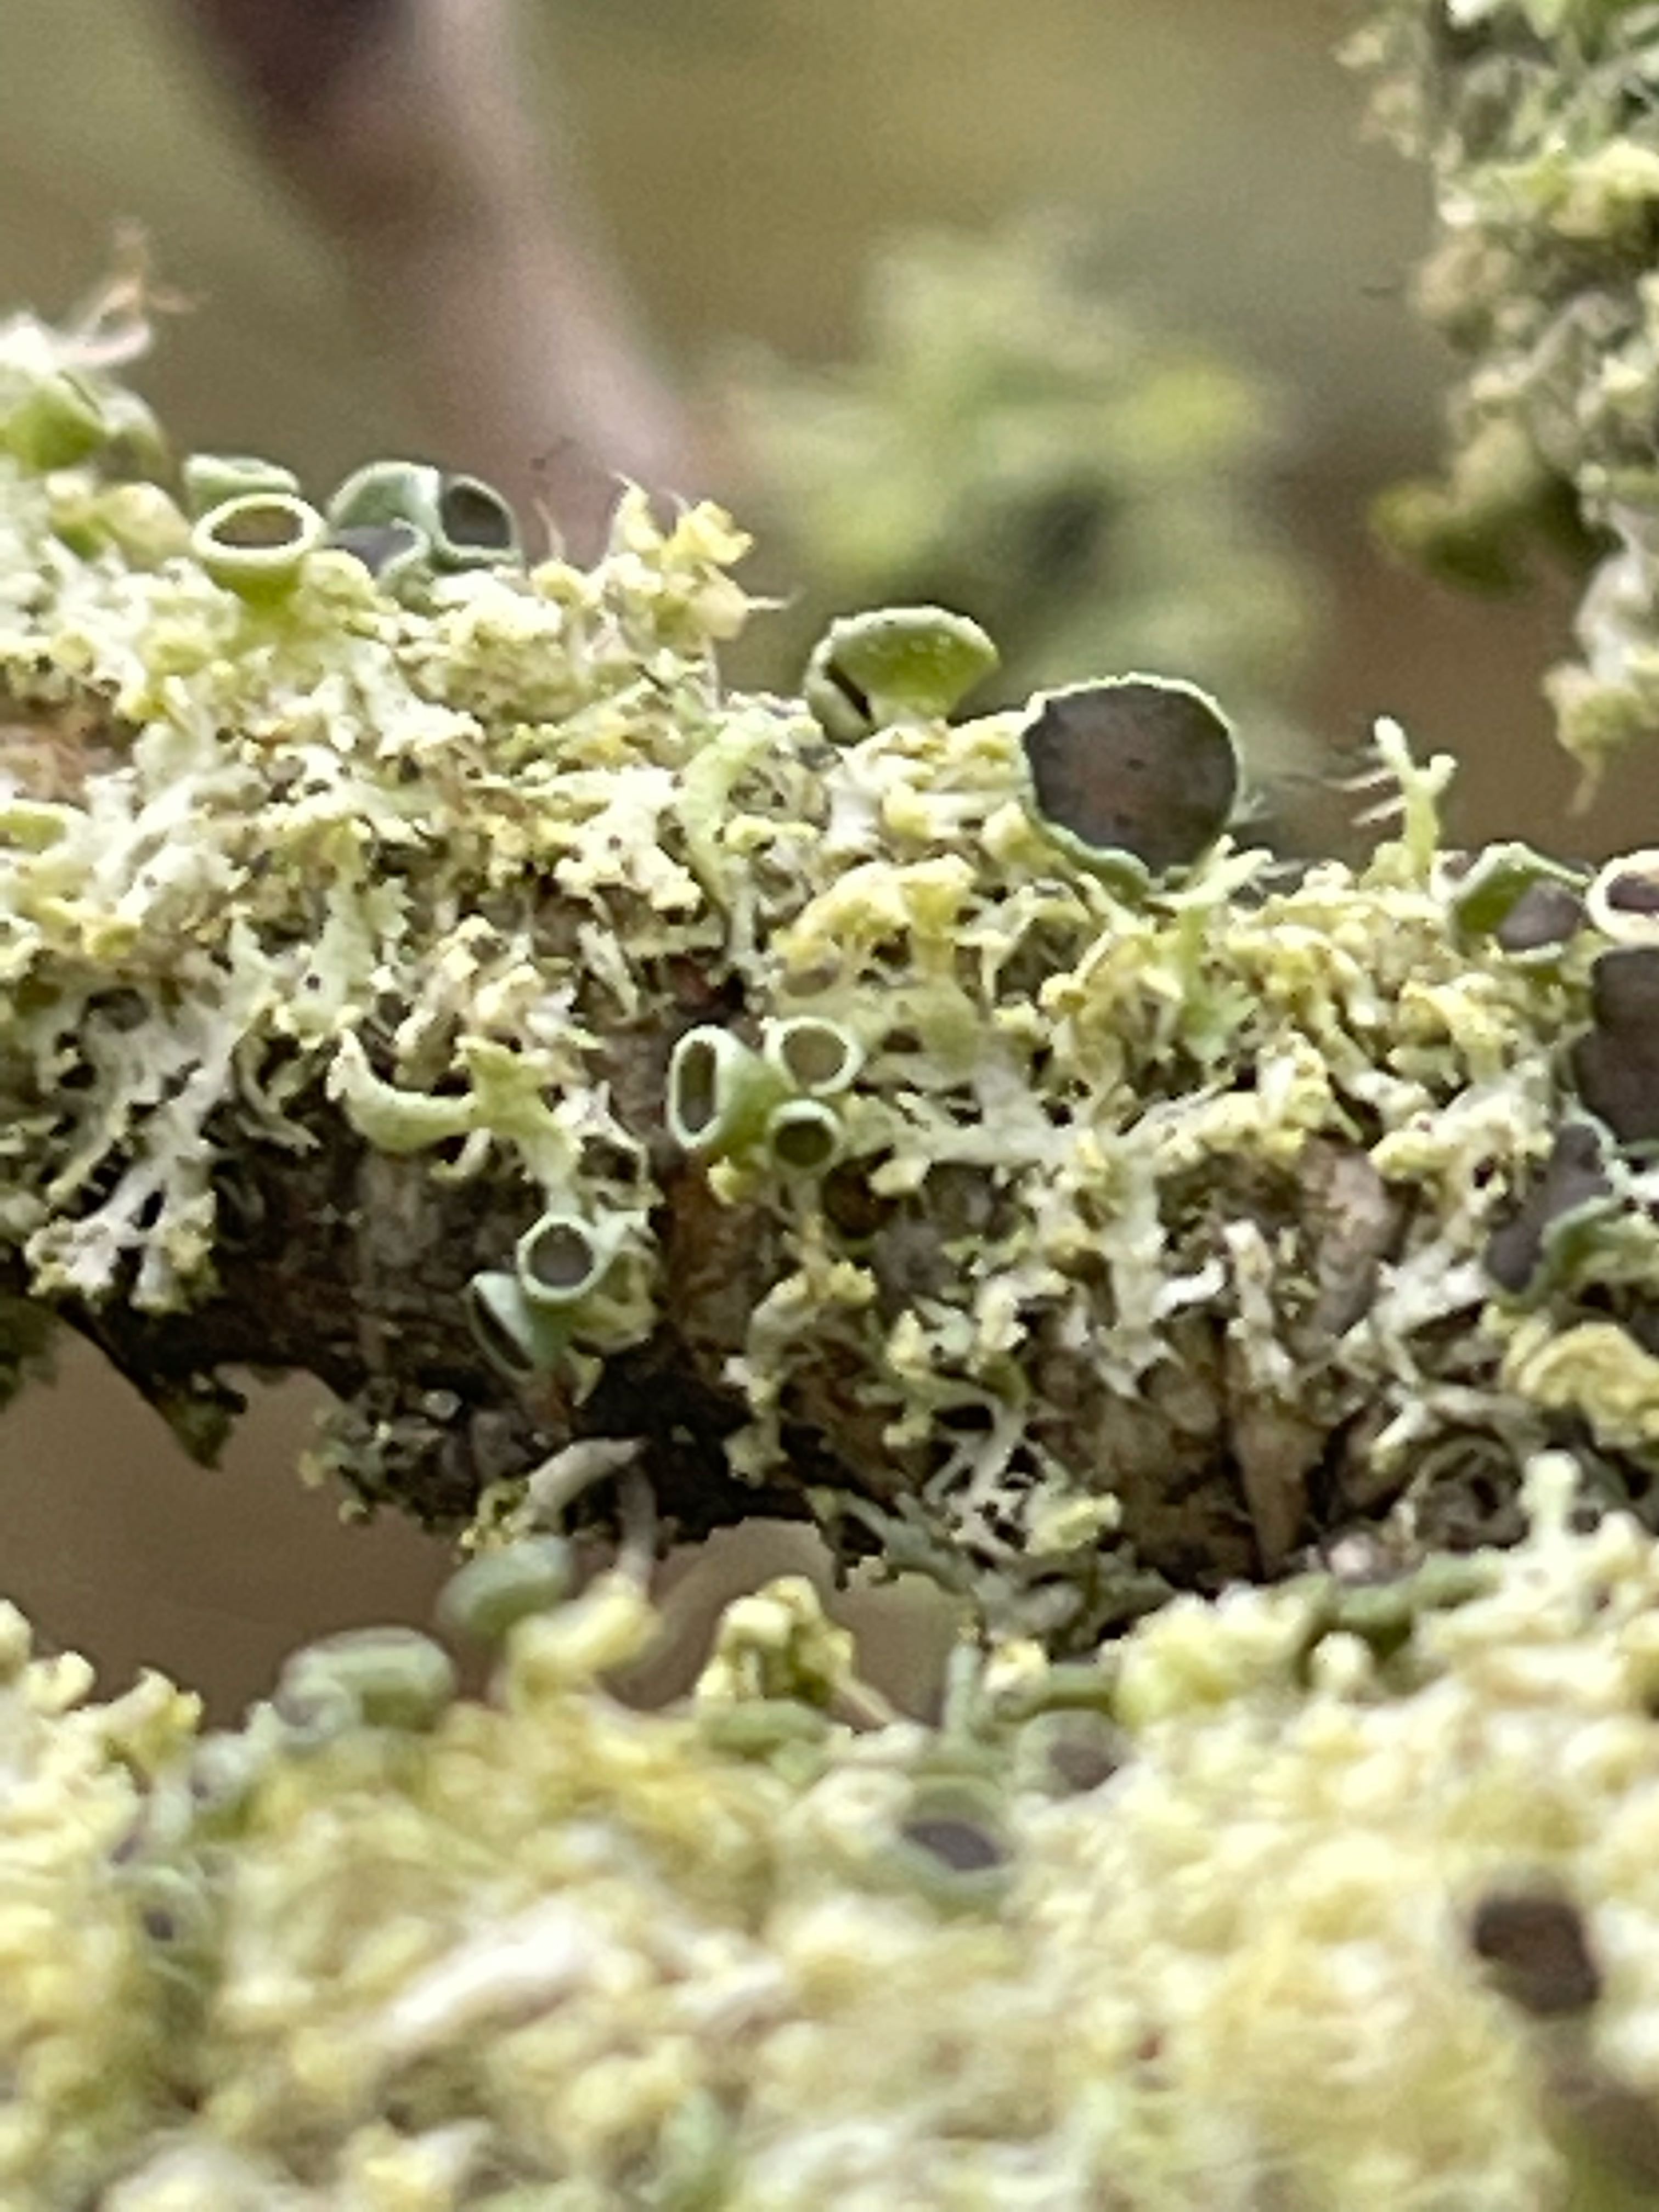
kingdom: Fungi
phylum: Ascomycota
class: Lecanoromycetes
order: Caliciales
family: Physciaceae
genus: Physcia
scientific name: Physcia tenella
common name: spæd rosetlav
